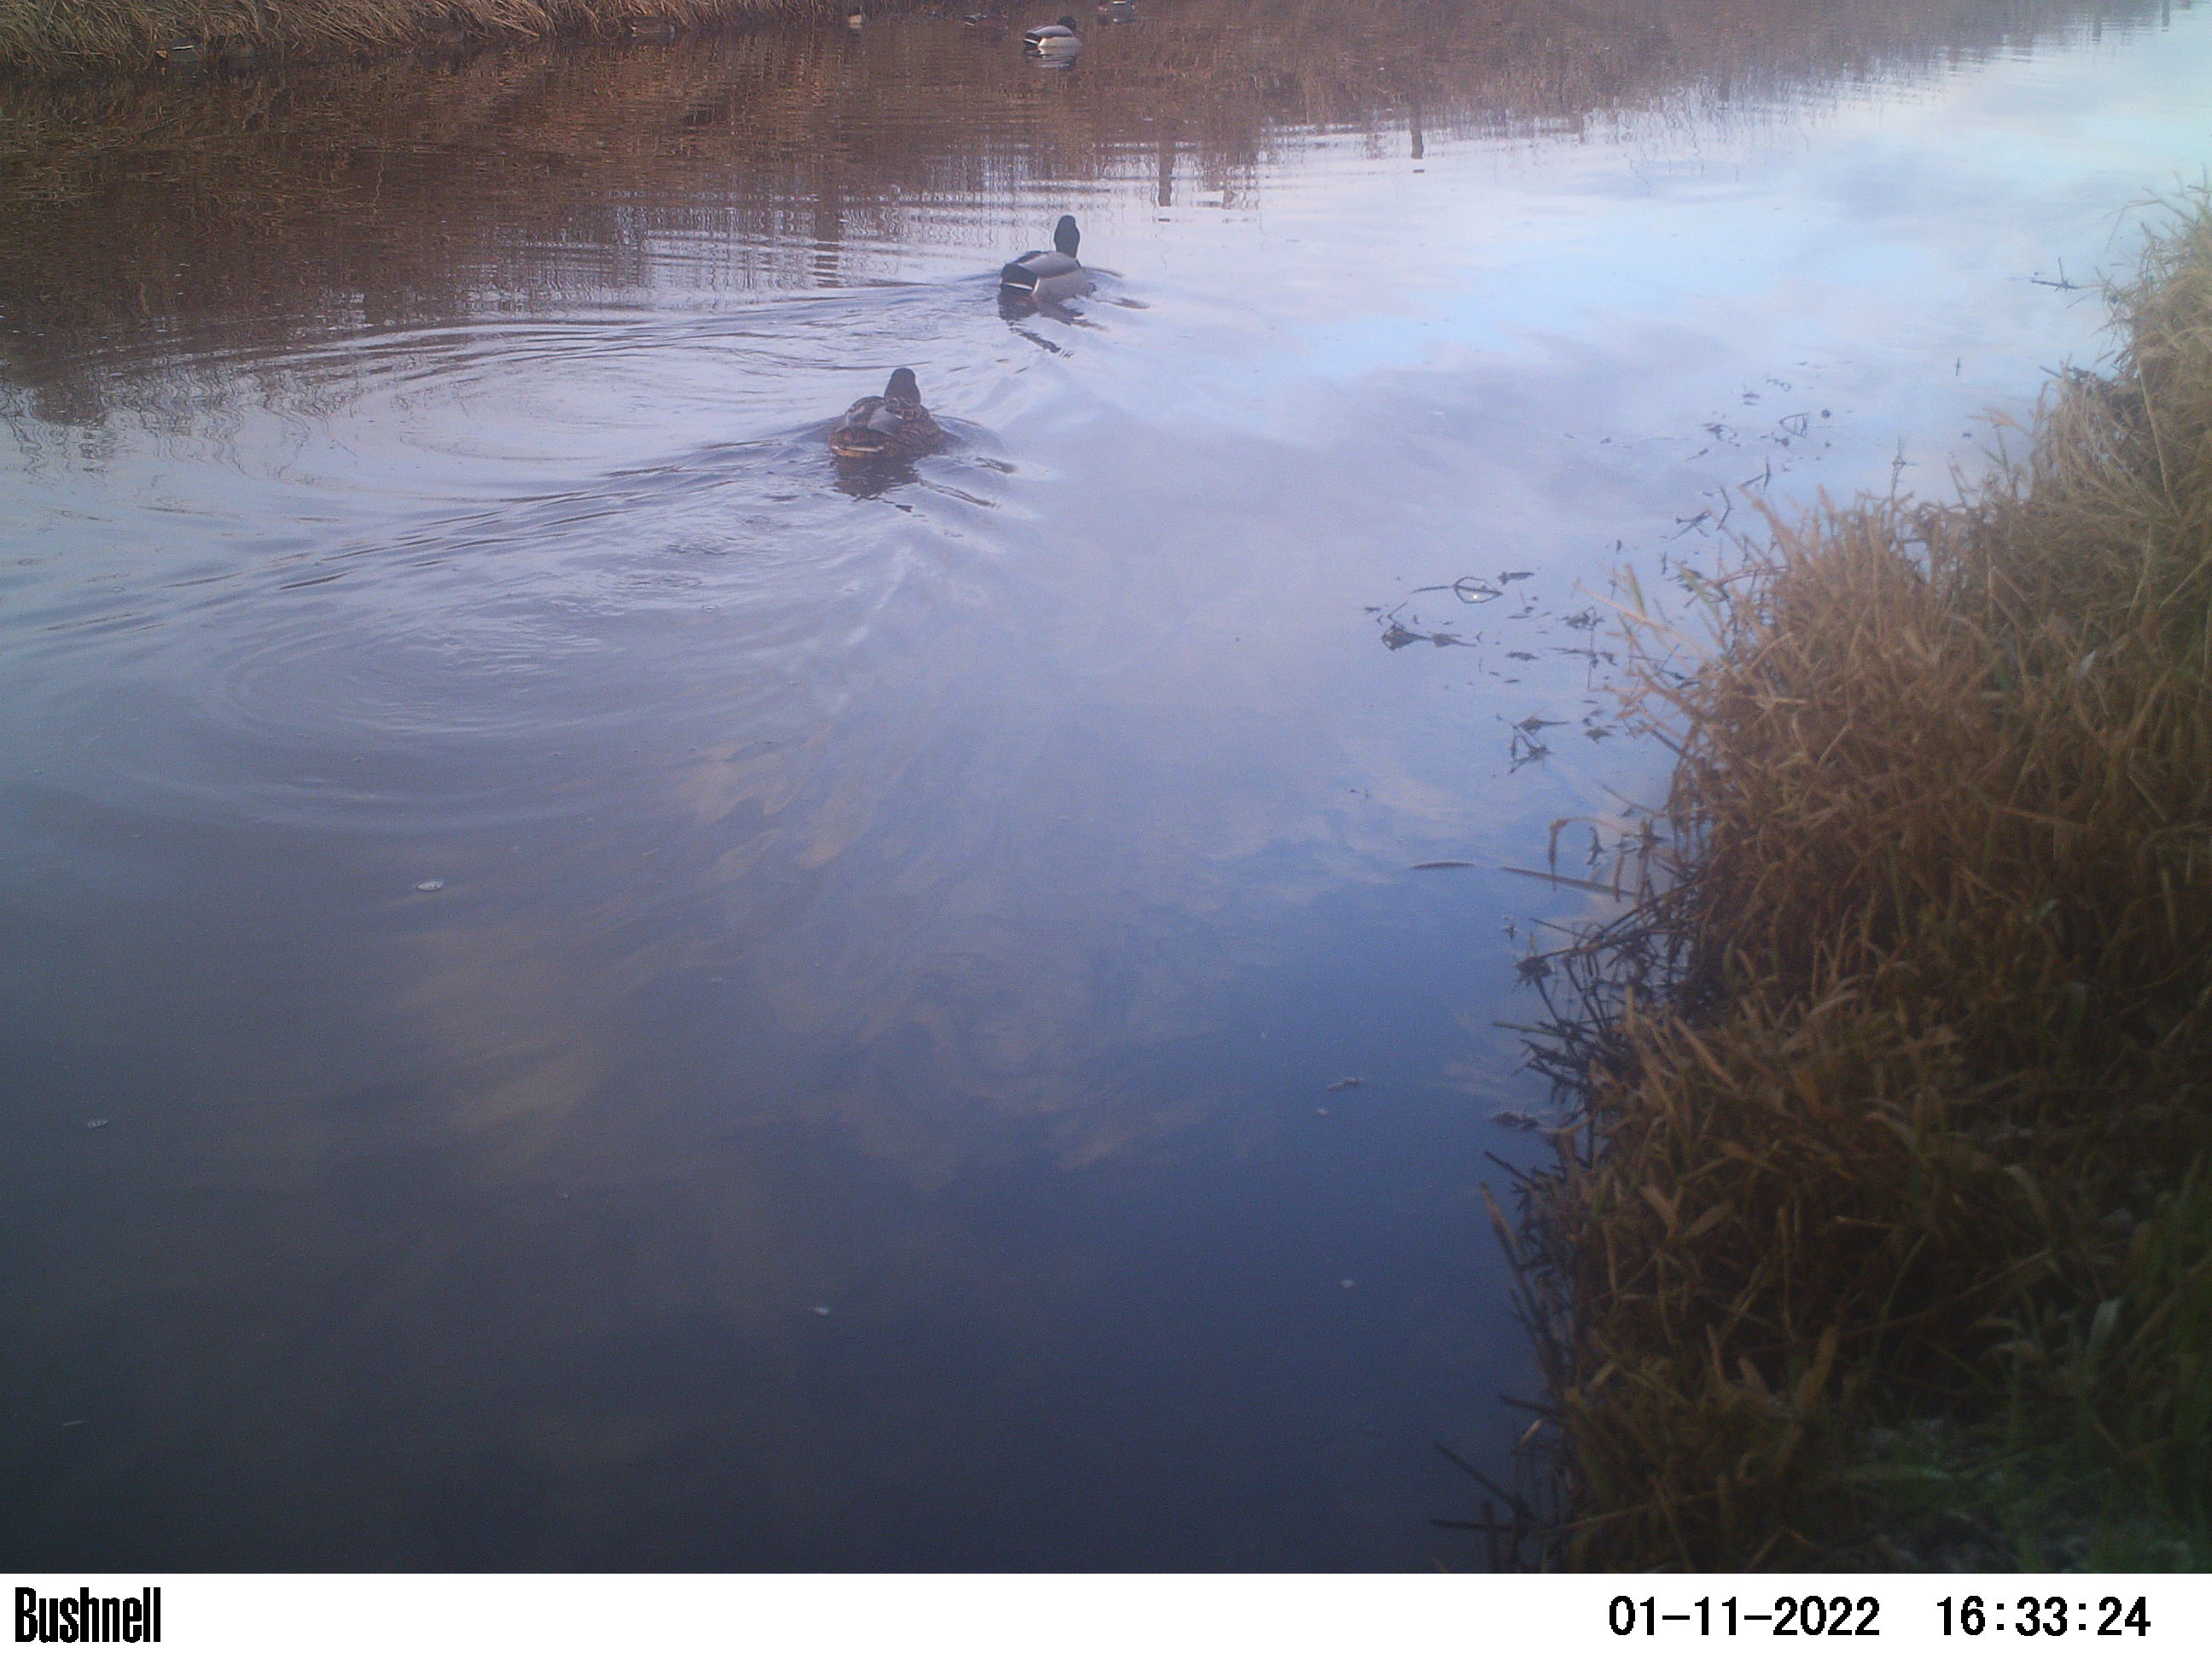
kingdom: Animalia
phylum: Chordata
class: Aves
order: Anseriformes
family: Anatidae
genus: Anas
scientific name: Anas
